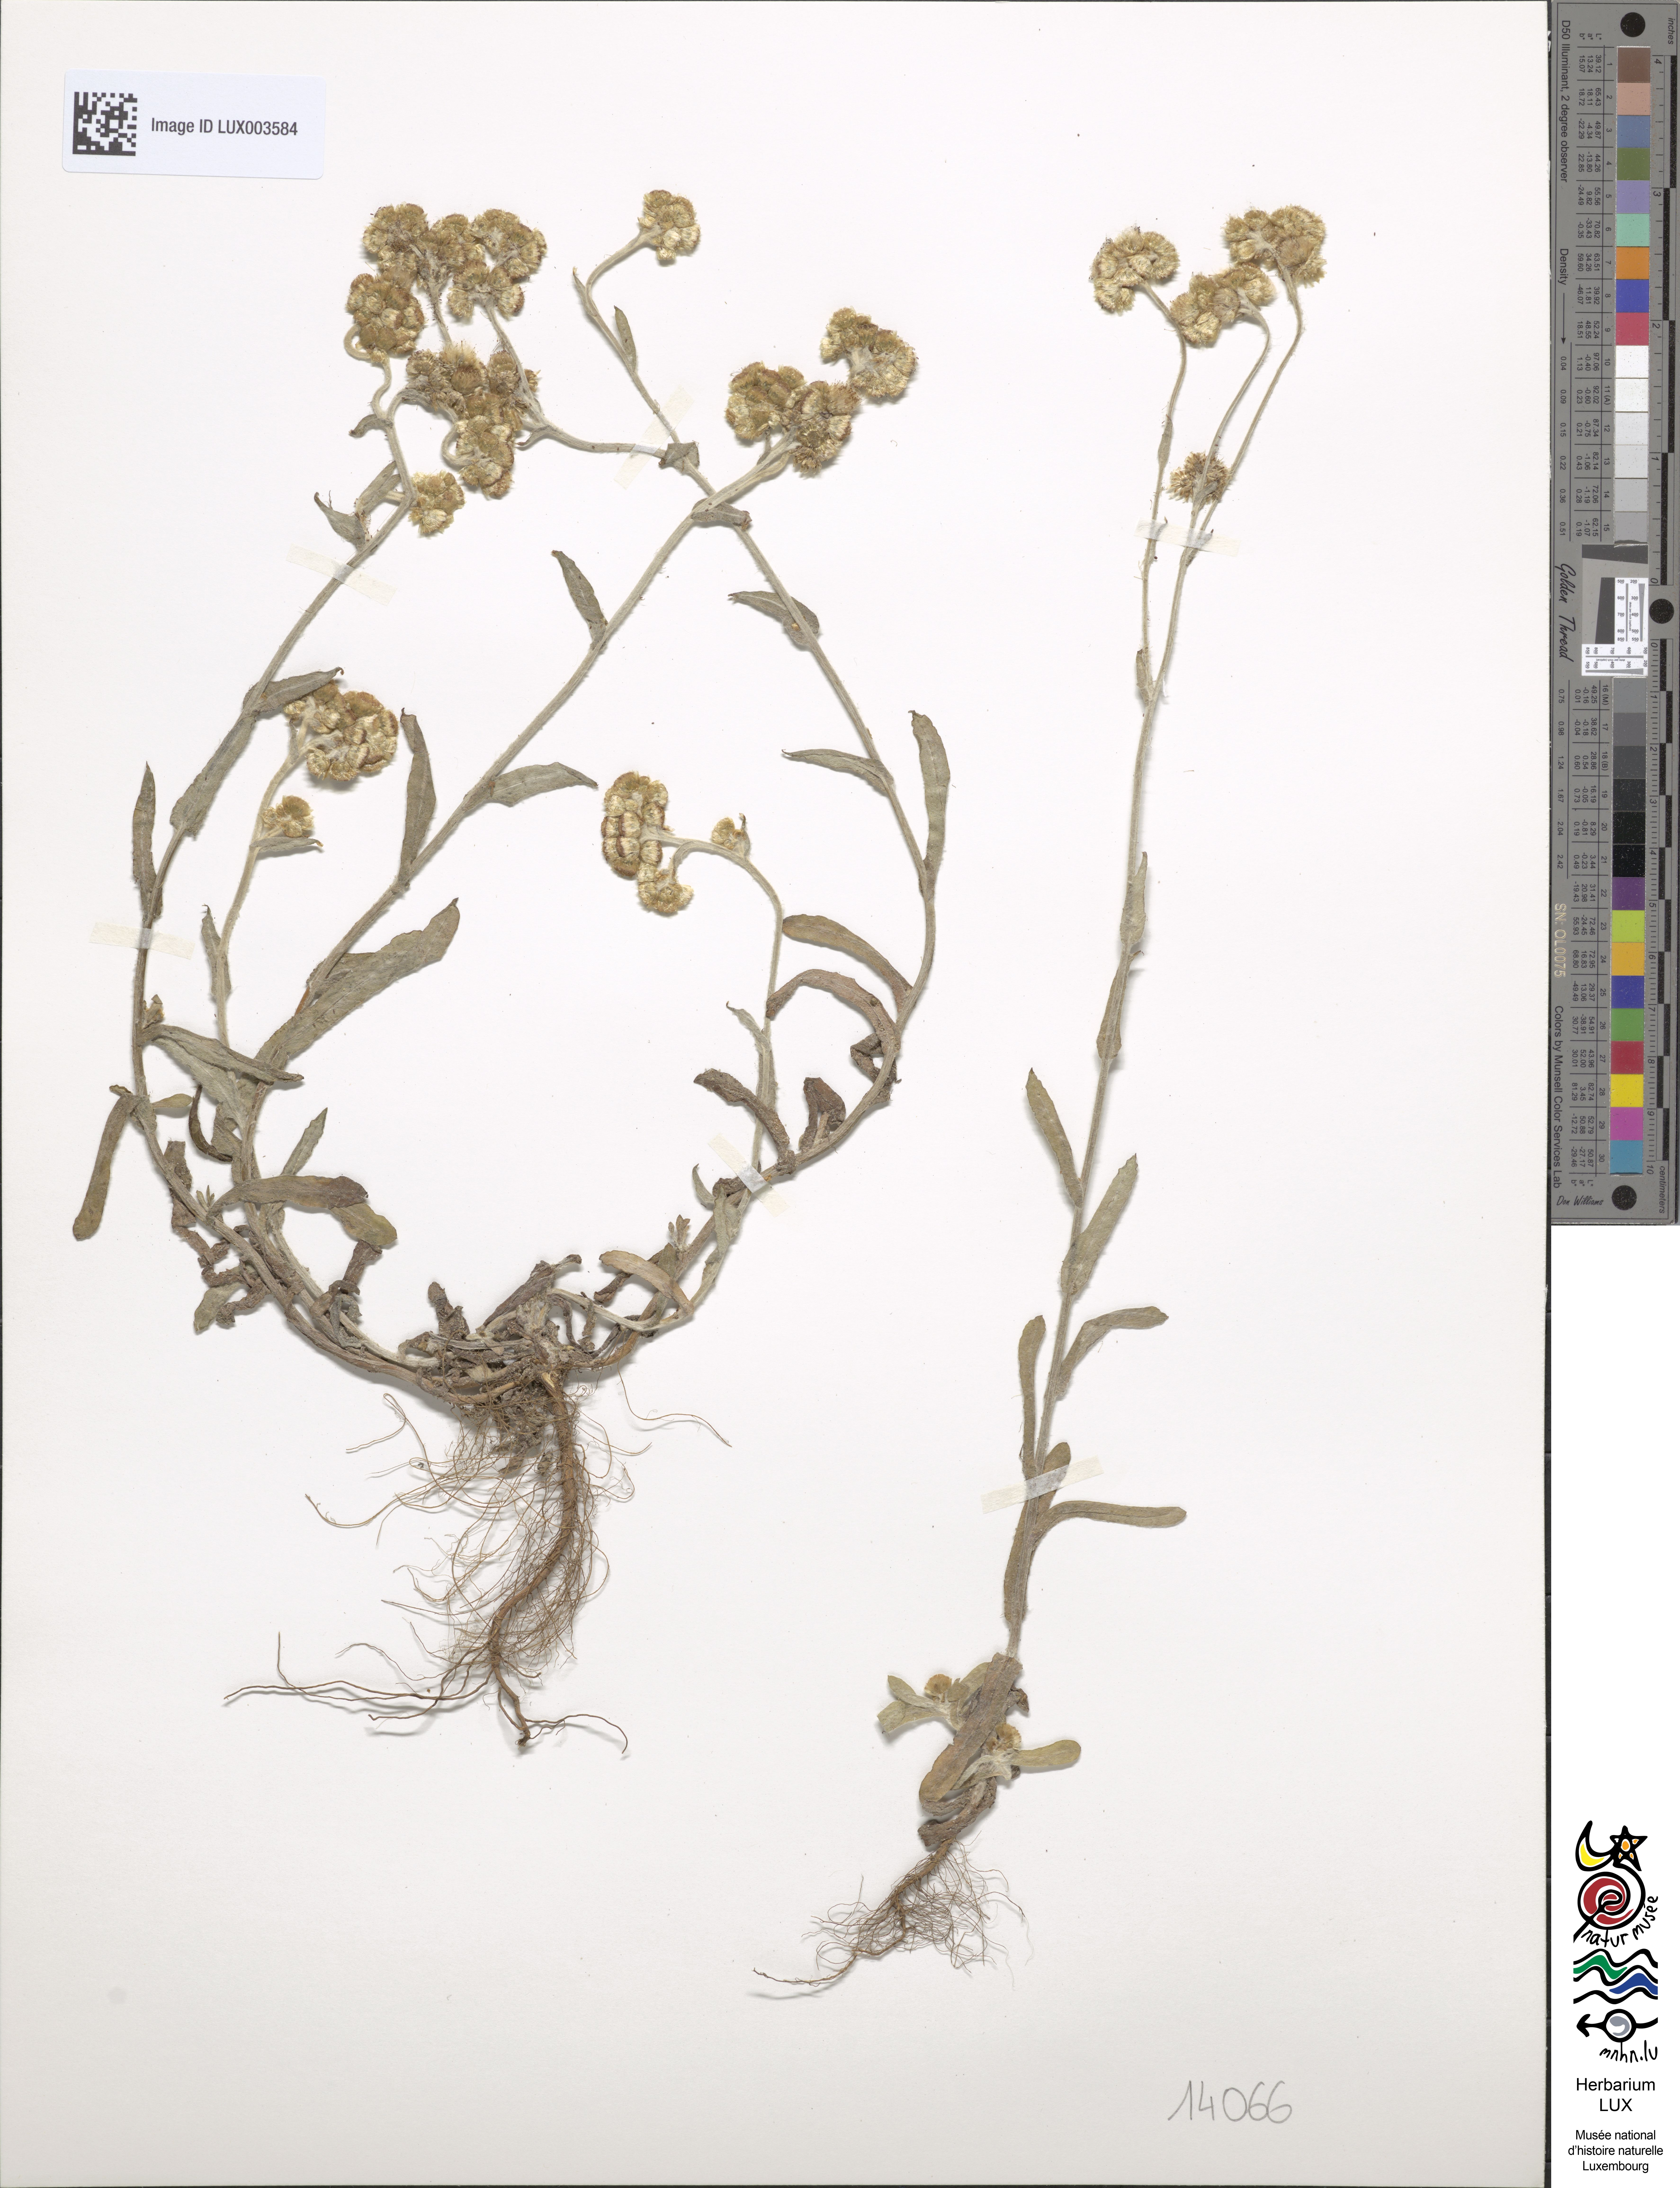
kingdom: Plantae
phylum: Tracheophyta
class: Magnoliopsida
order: Asterales
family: Asteraceae
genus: Helichrysum
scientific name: Helichrysum luteoalbum
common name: Daisy
